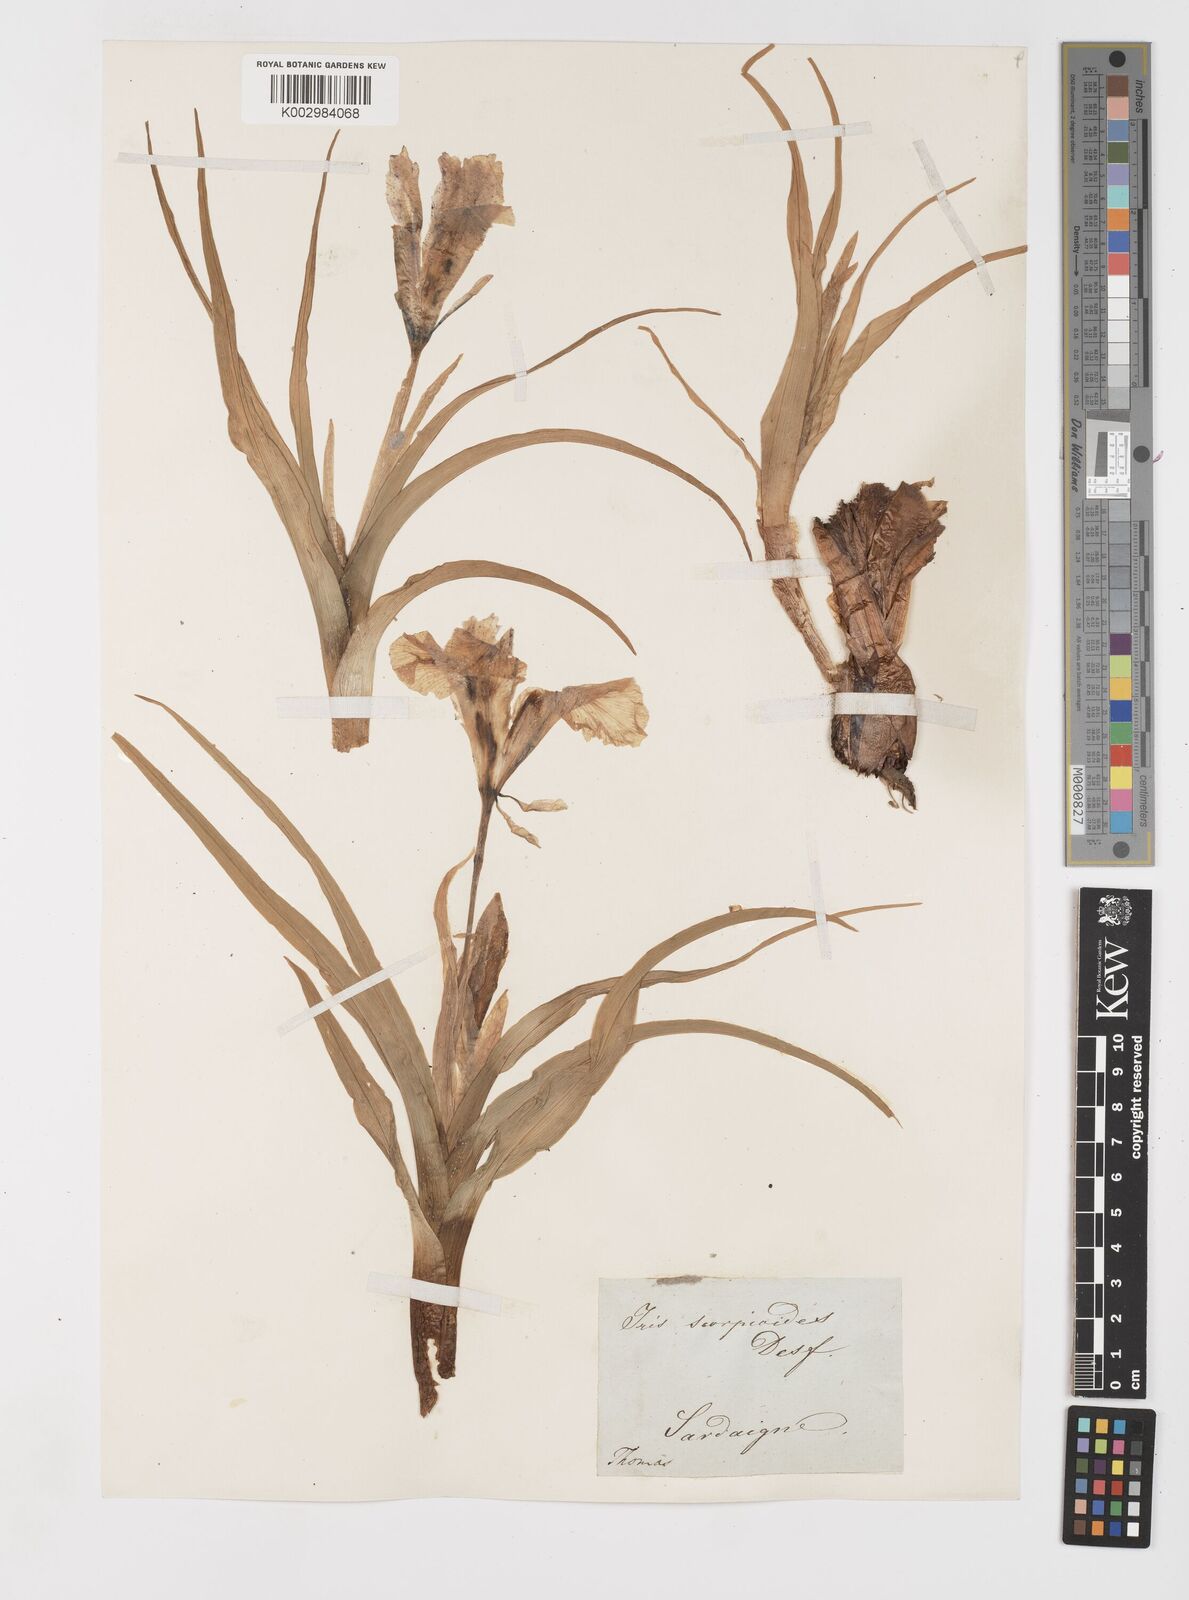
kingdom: Plantae
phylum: Tracheophyta
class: Liliopsida
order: Asparagales
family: Iridaceae
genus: Iris
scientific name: Iris planifolia
